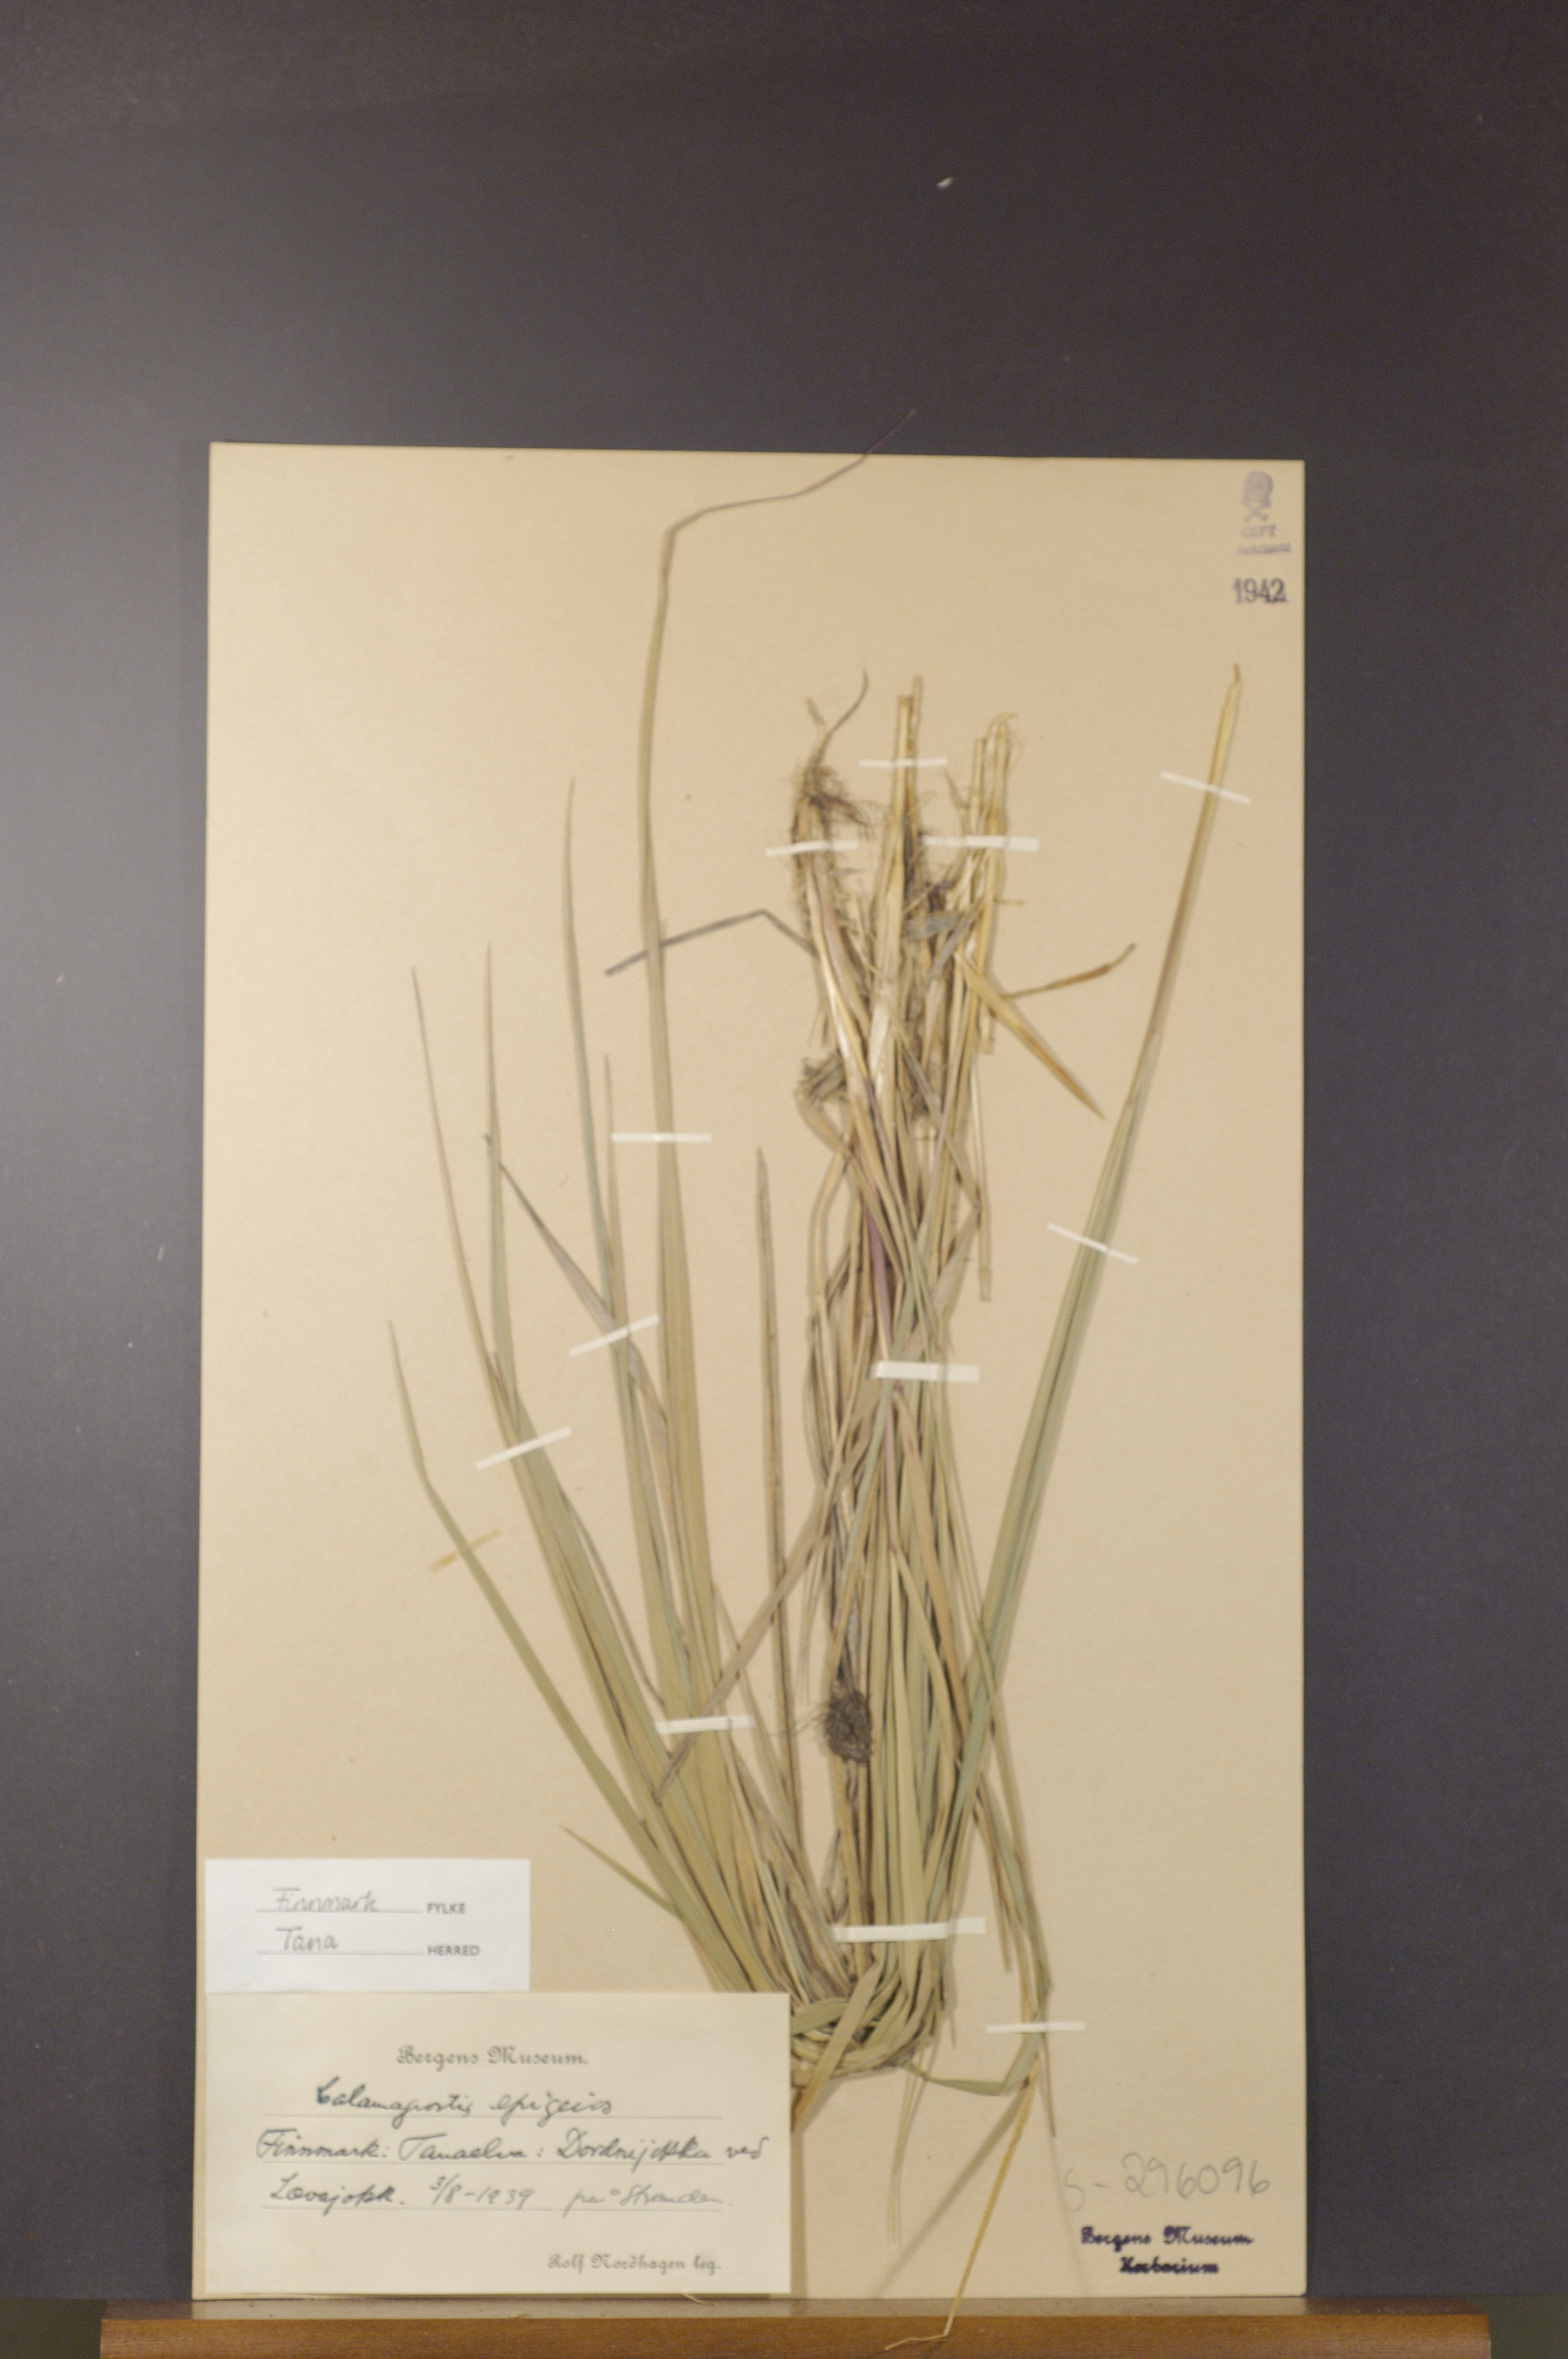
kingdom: Plantae
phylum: Tracheophyta
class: Liliopsida
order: Poales
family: Poaceae
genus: Calamagrostis
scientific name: Calamagrostis epigejos
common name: Wood small-reed
